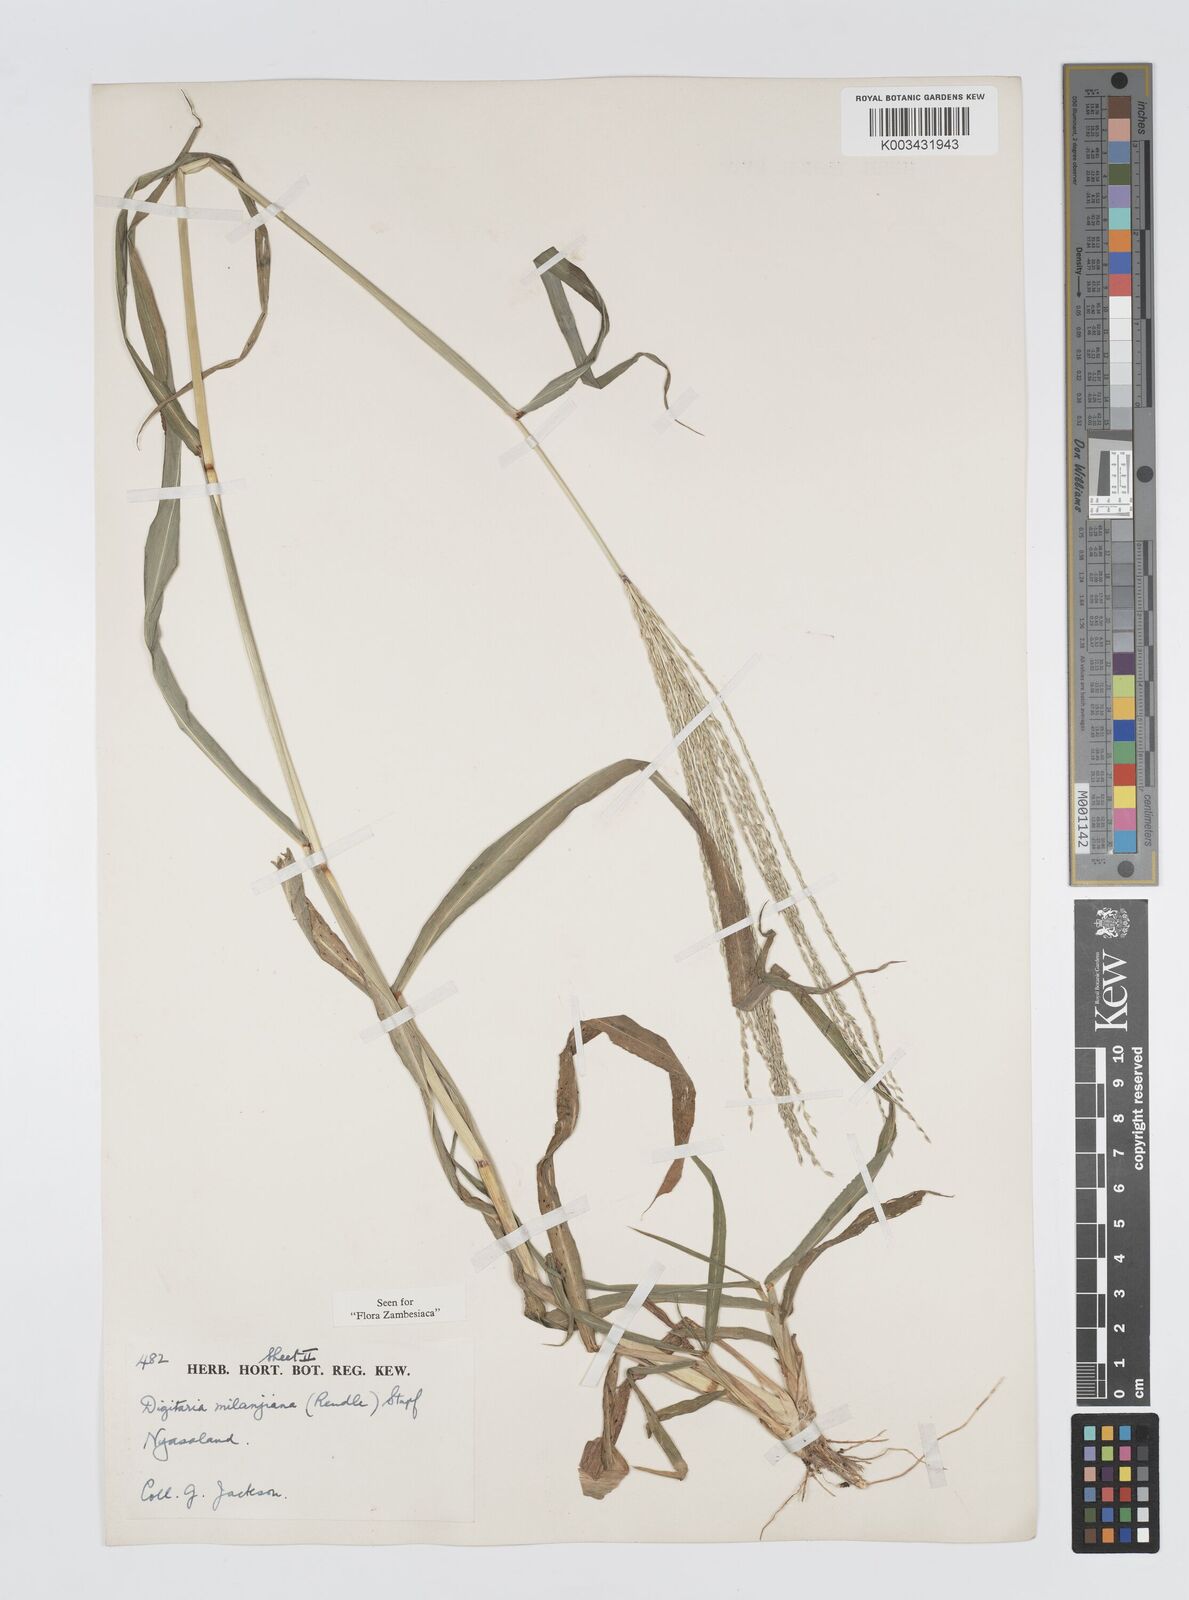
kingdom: Plantae
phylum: Tracheophyta
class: Liliopsida
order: Poales
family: Poaceae
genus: Digitaria
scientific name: Digitaria milanjiana
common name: Madagascar crabgrass
